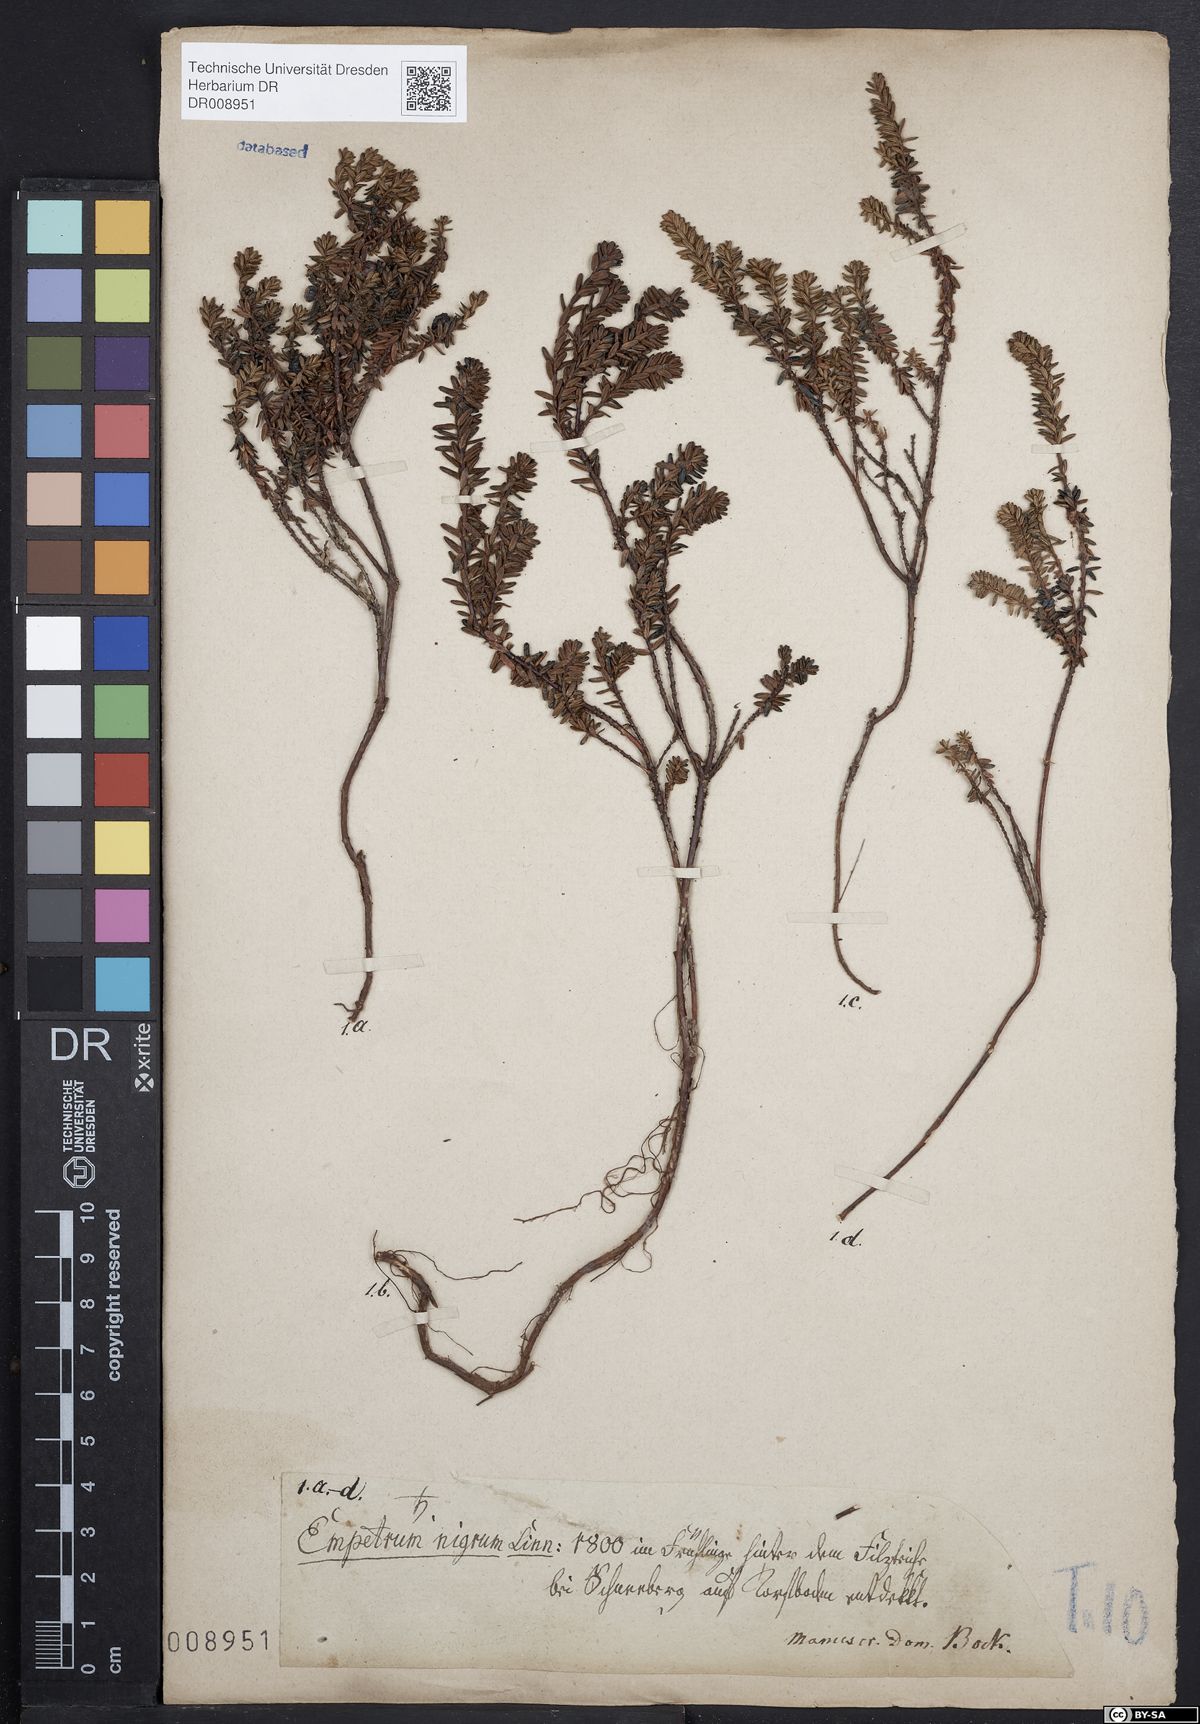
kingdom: Plantae
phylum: Tracheophyta
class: Magnoliopsida
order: Ericales
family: Ericaceae
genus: Empetrum
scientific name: Empetrum nigrum
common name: Black crowberry
